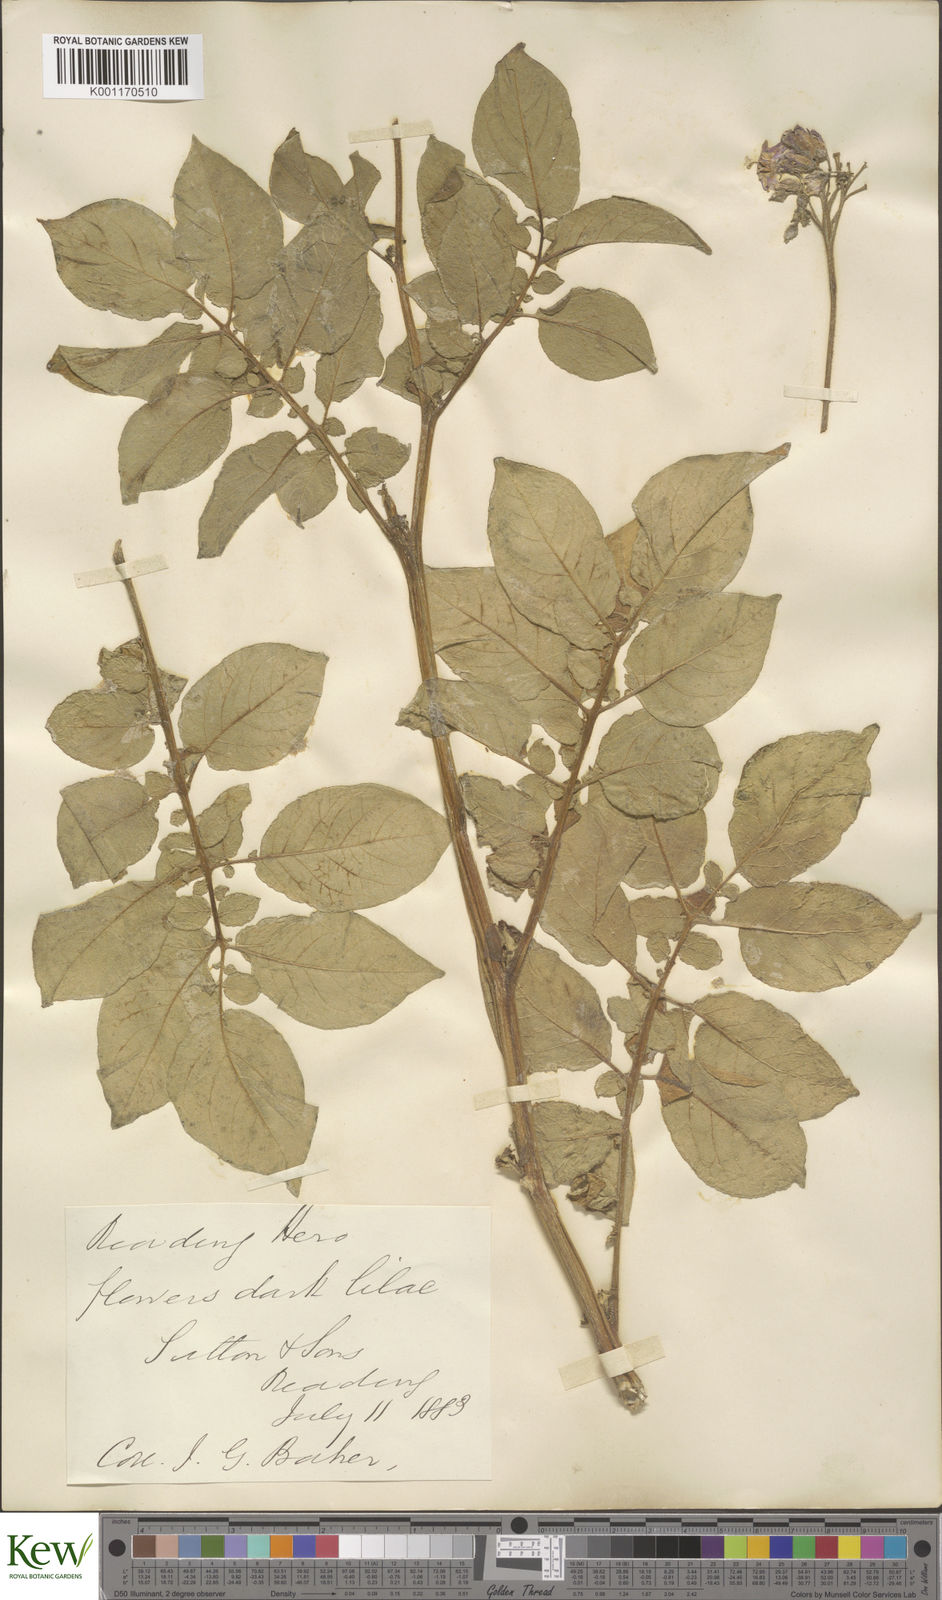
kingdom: Plantae
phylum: Tracheophyta
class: Magnoliopsida
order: Solanales
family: Solanaceae
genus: Solanum
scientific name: Solanum tuberosum
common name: Potato
